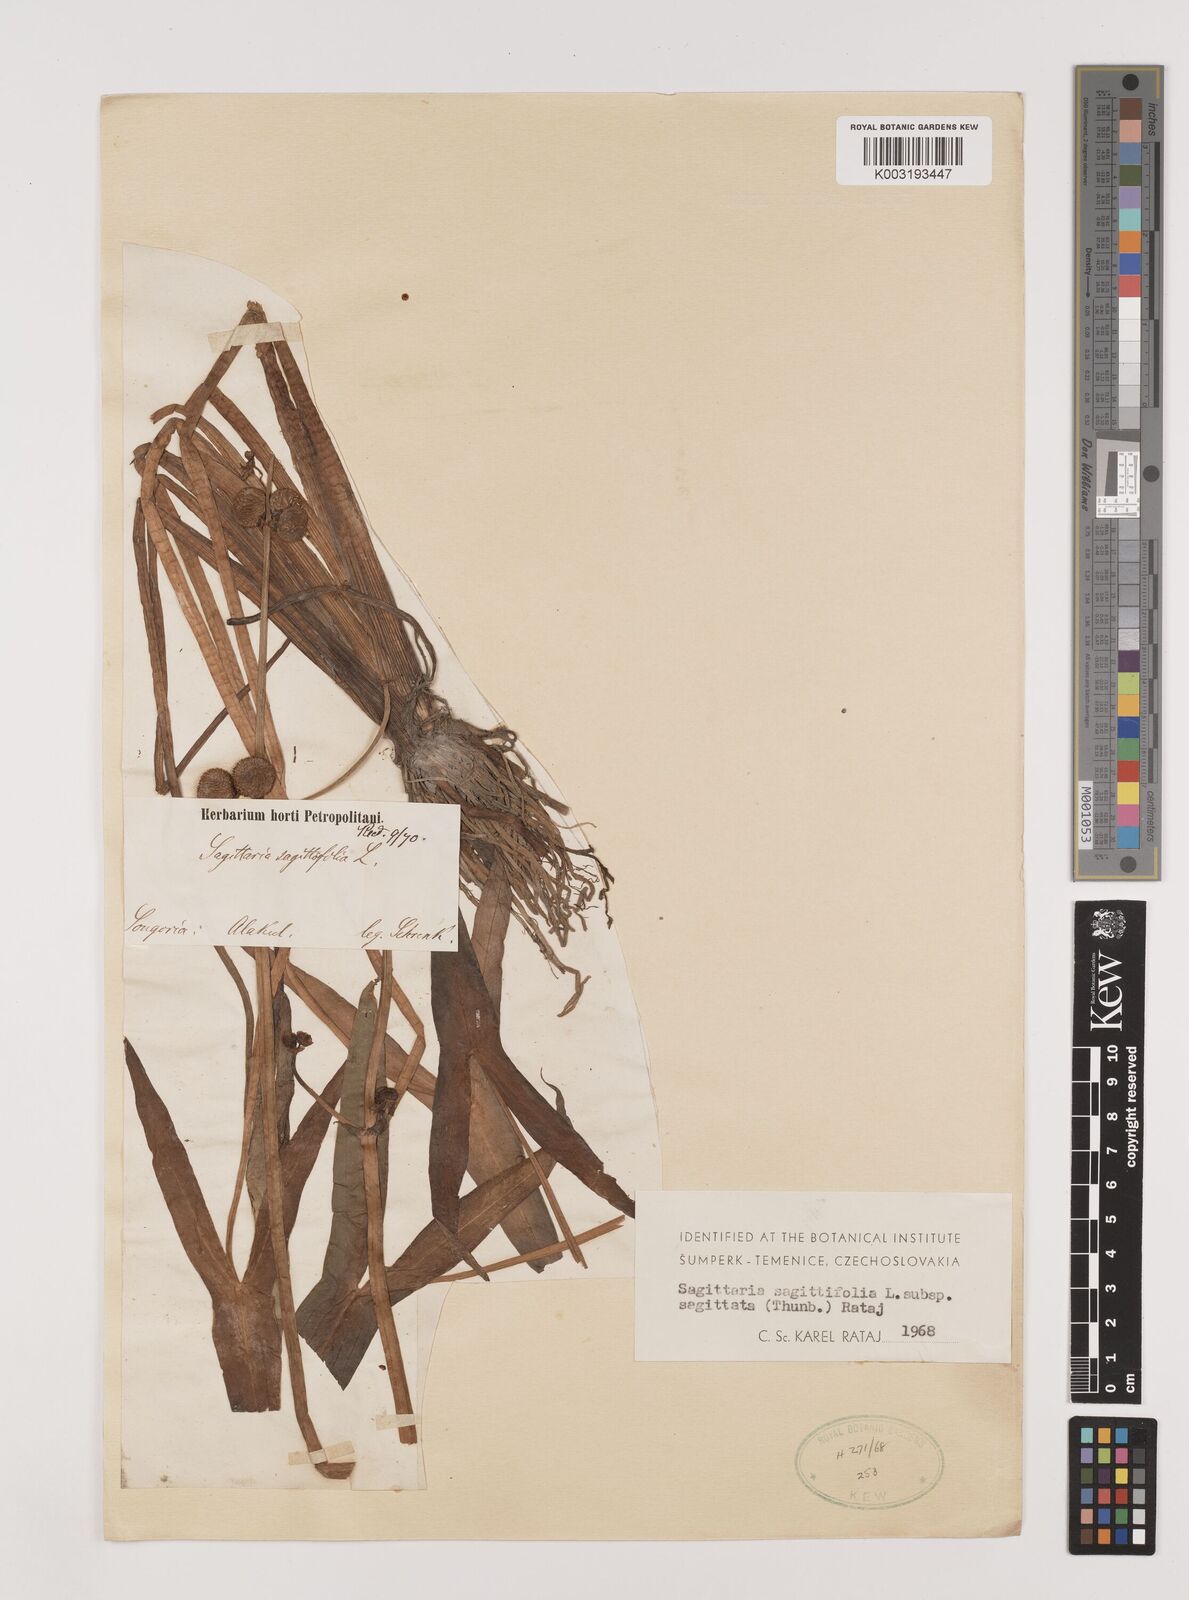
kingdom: Plantae
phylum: Tracheophyta
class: Liliopsida
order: Alismatales
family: Alismataceae
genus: Sagittaria
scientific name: Sagittaria trifolia
